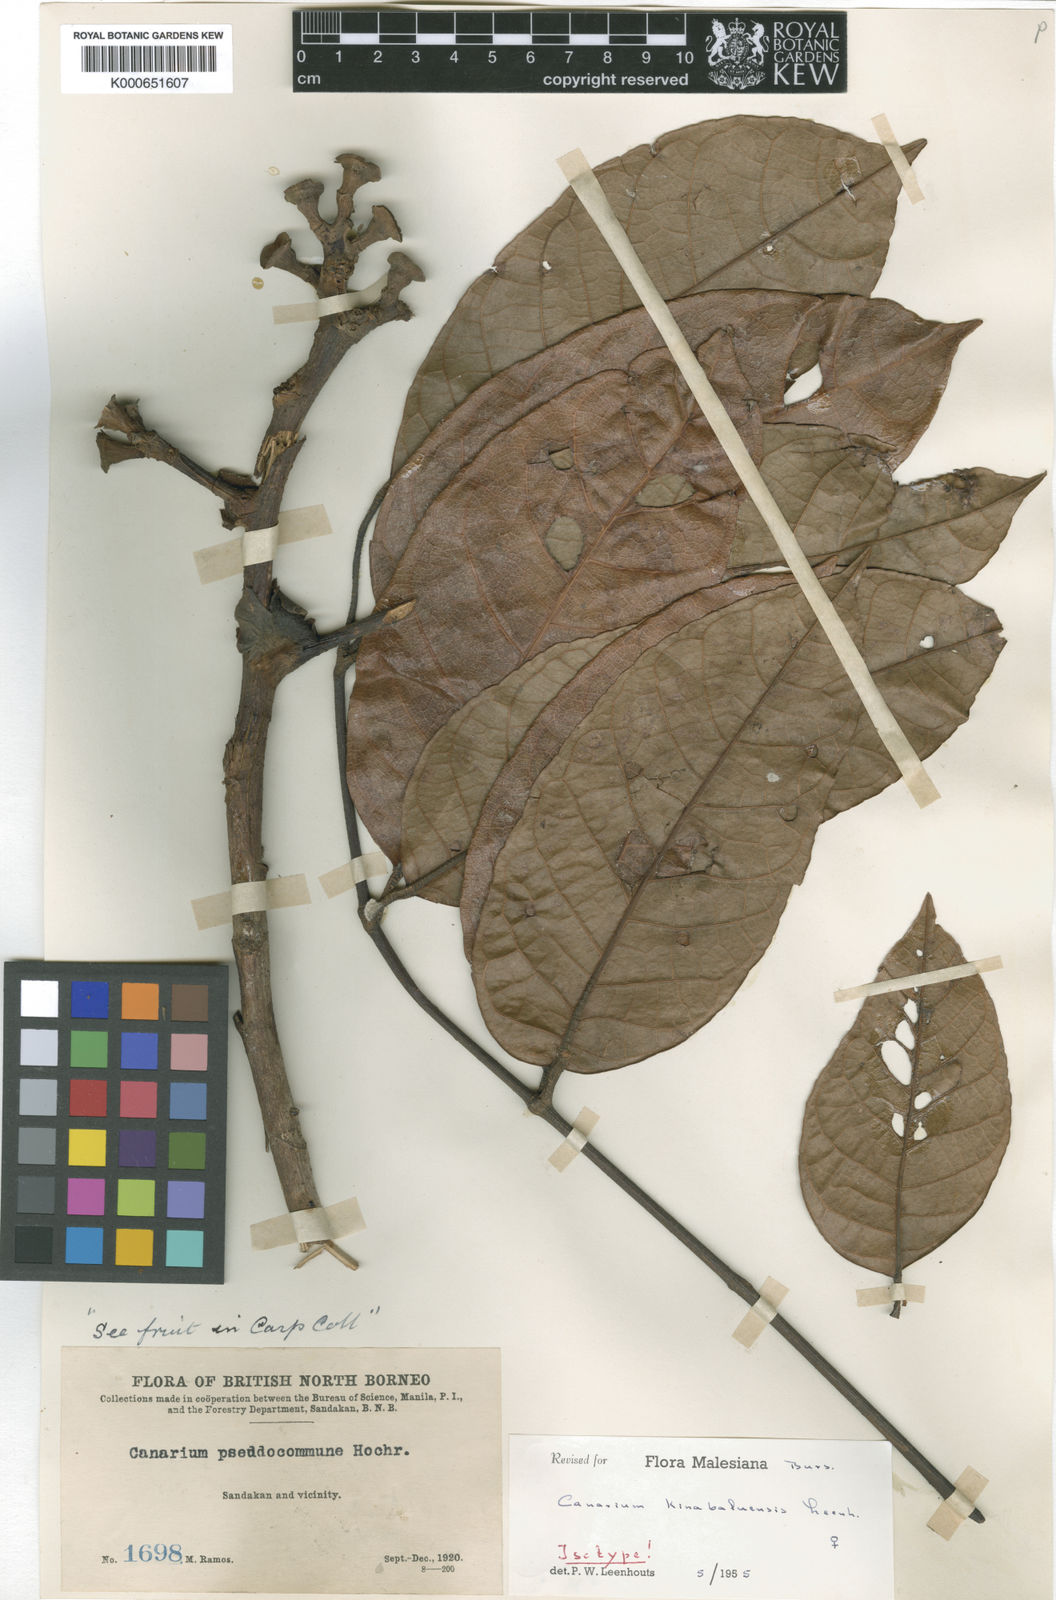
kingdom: Plantae
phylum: Tracheophyta
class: Magnoliopsida
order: Sapindales
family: Burseraceae
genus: Canarium
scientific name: Canarium kinabaluense
